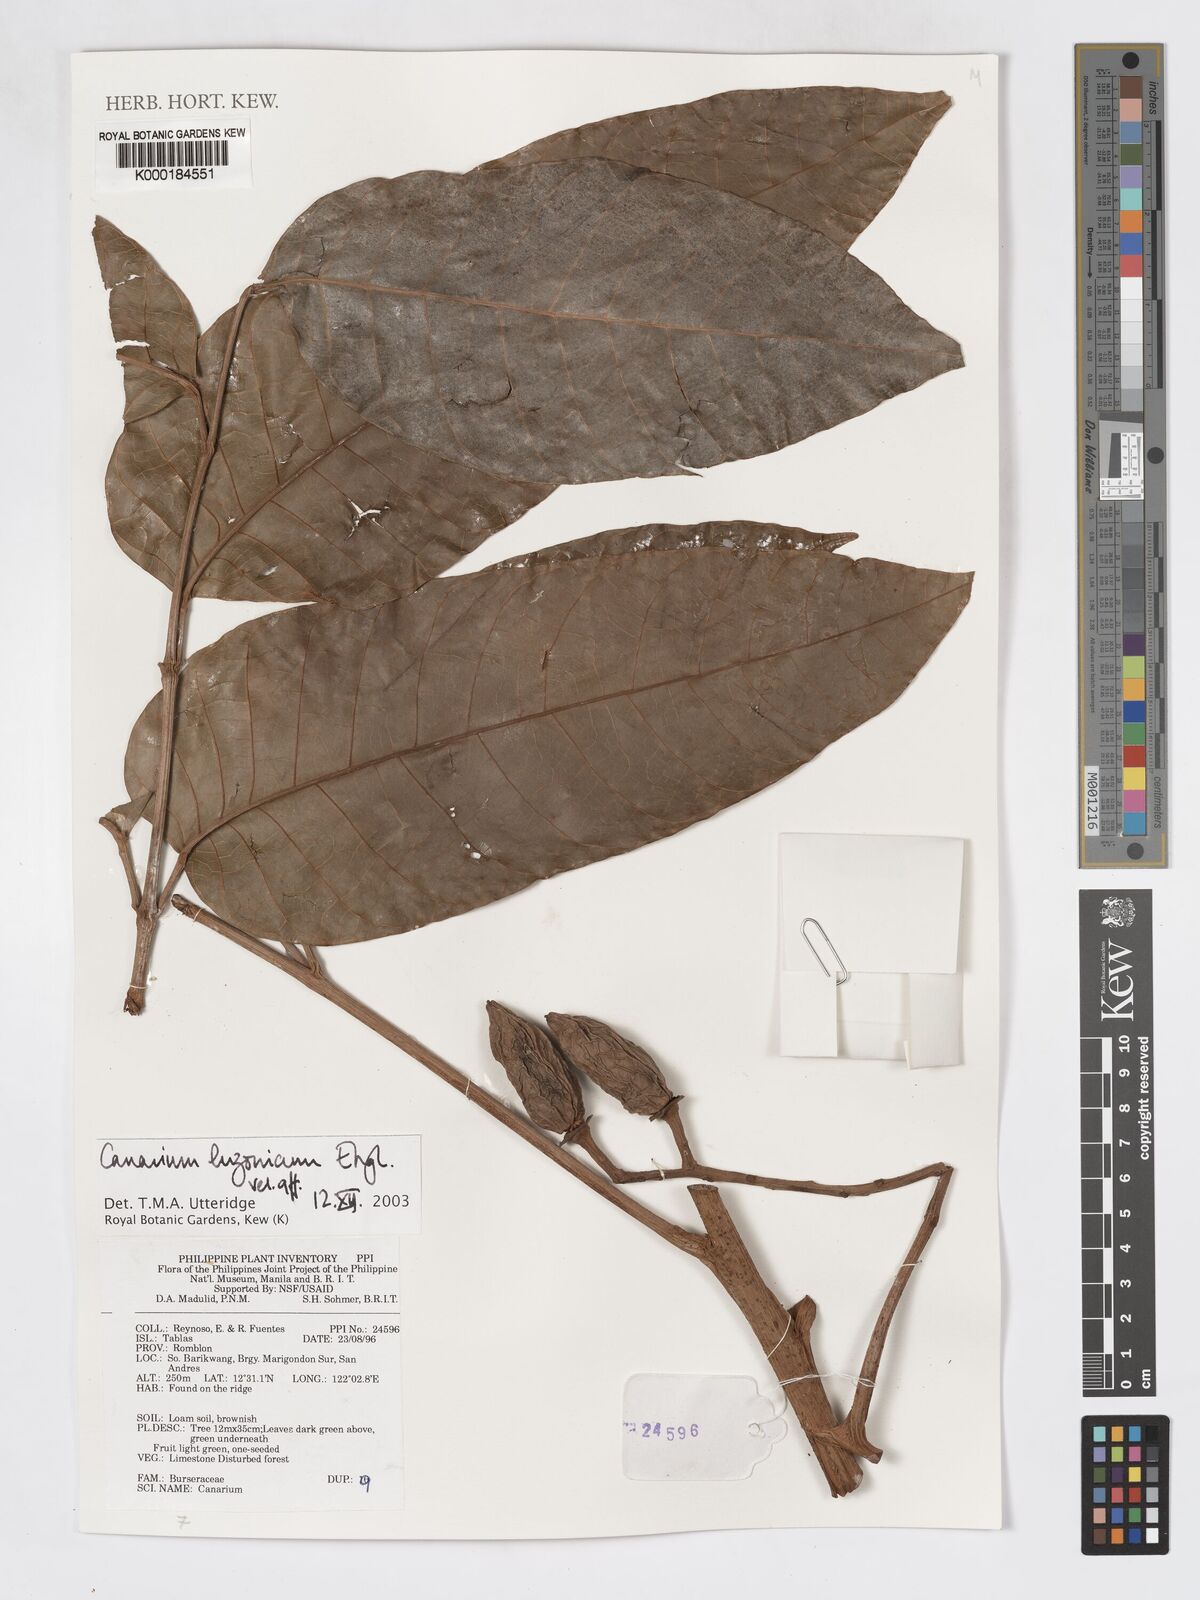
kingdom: Plantae
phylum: Tracheophyta
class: Magnoliopsida
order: Sapindales
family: Burseraceae
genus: Canarium
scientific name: Canarium
